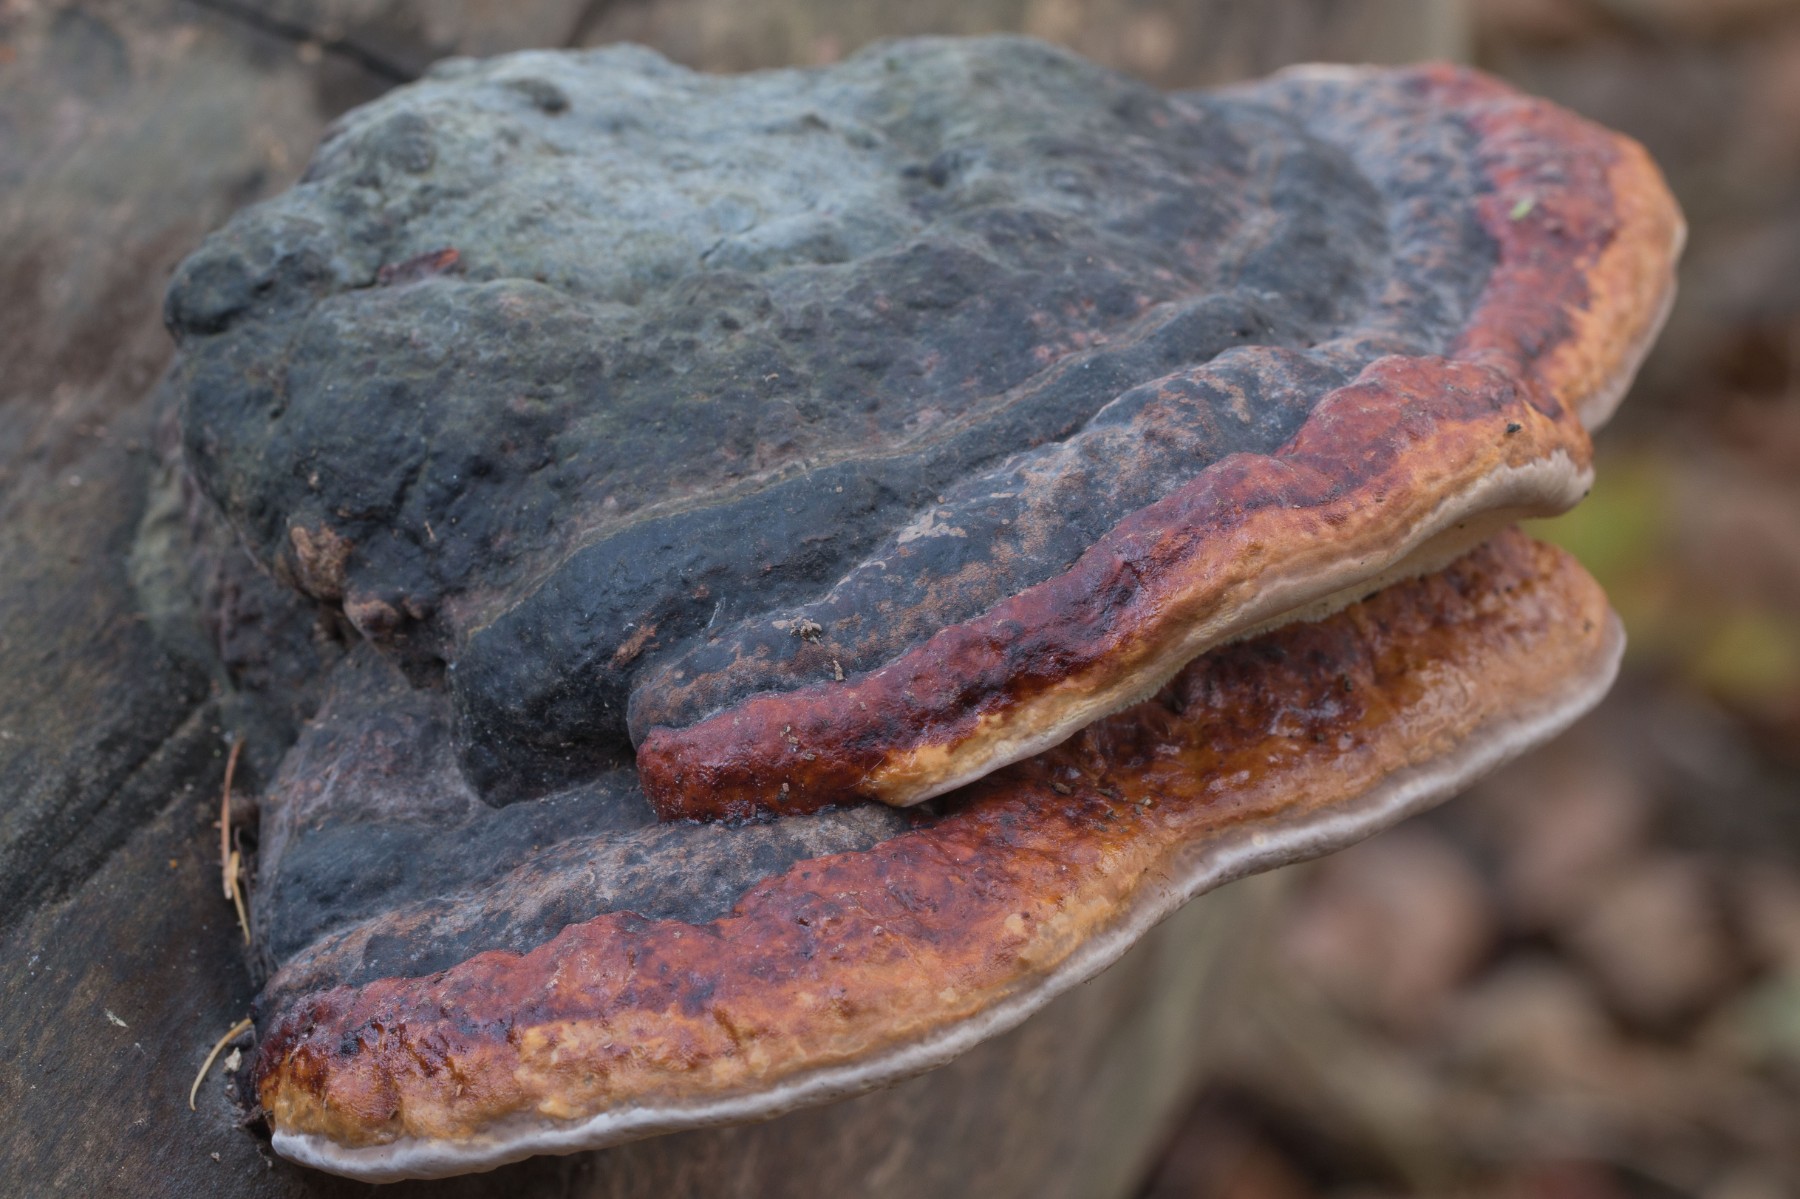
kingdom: Fungi
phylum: Basidiomycota
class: Agaricomycetes
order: Polyporales
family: Fomitopsidaceae
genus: Fomitopsis
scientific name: Fomitopsis pinicola
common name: randbæltet hovporesvamp
